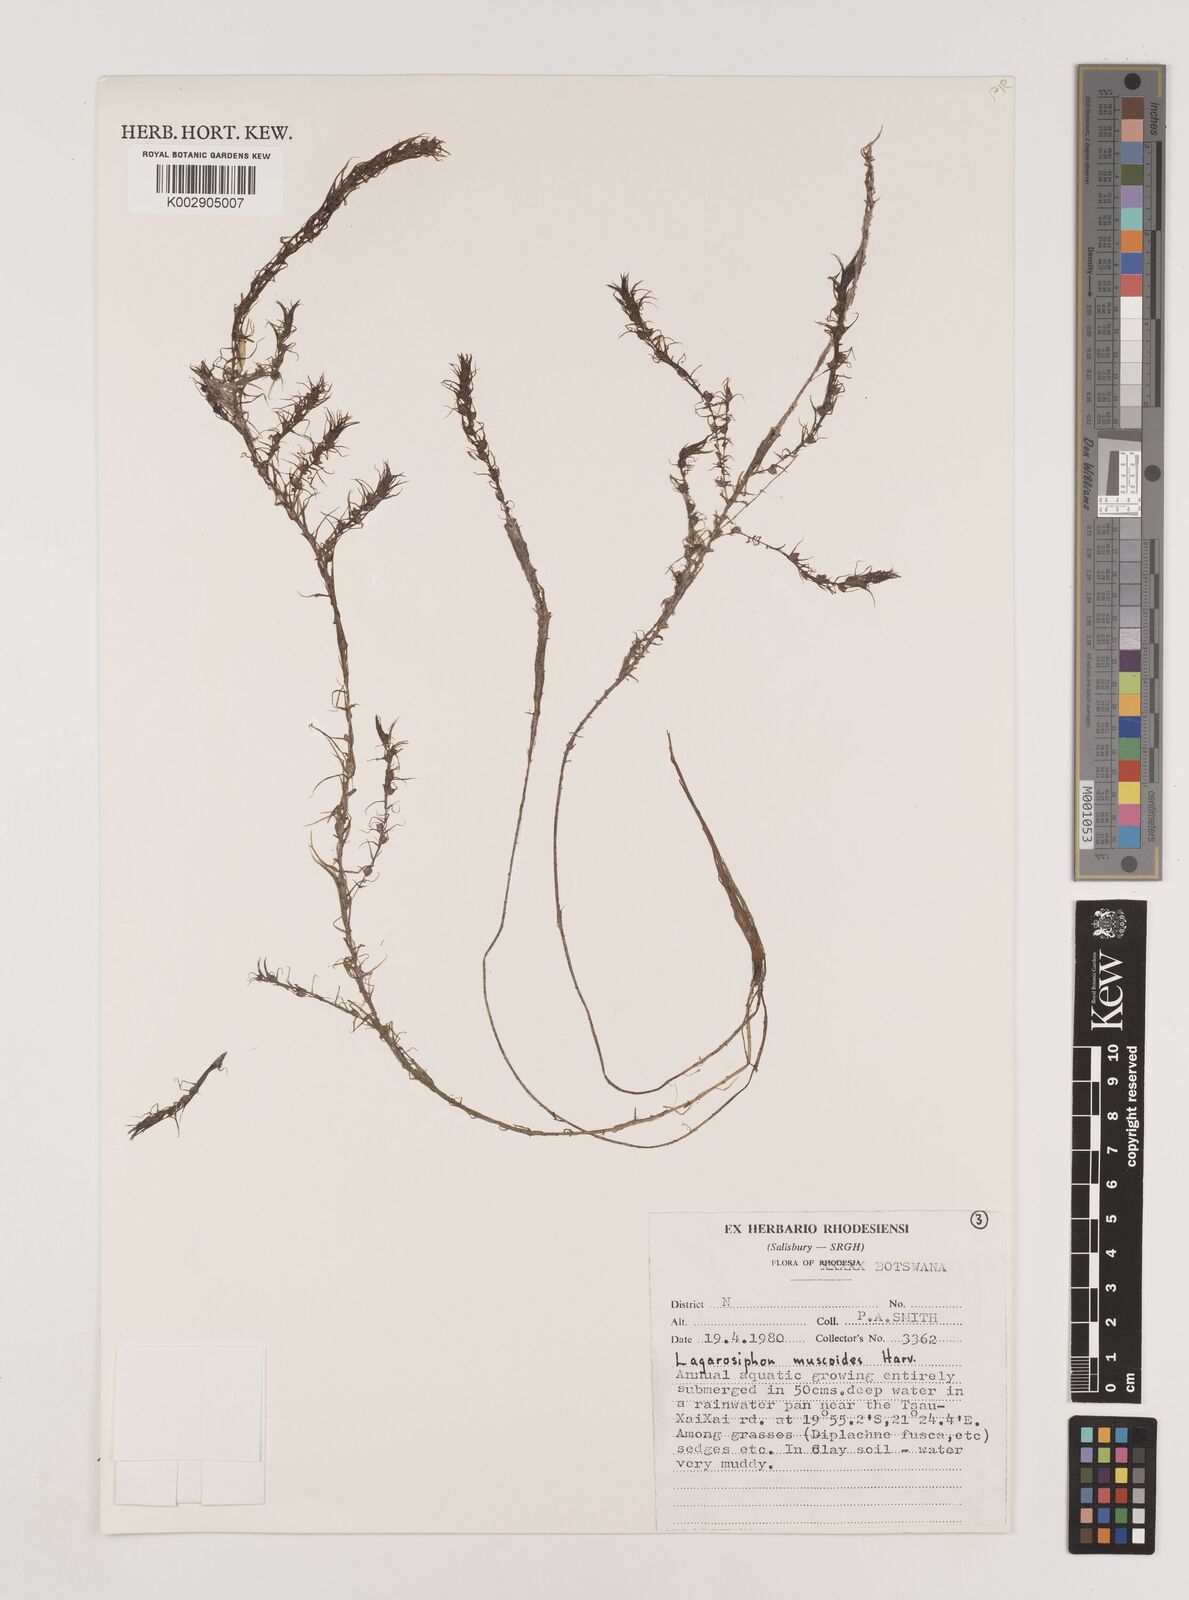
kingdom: Plantae
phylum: Tracheophyta
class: Liliopsida
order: Alismatales
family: Hydrocharitaceae
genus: Lagarosiphon
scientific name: Lagarosiphon muscoides
